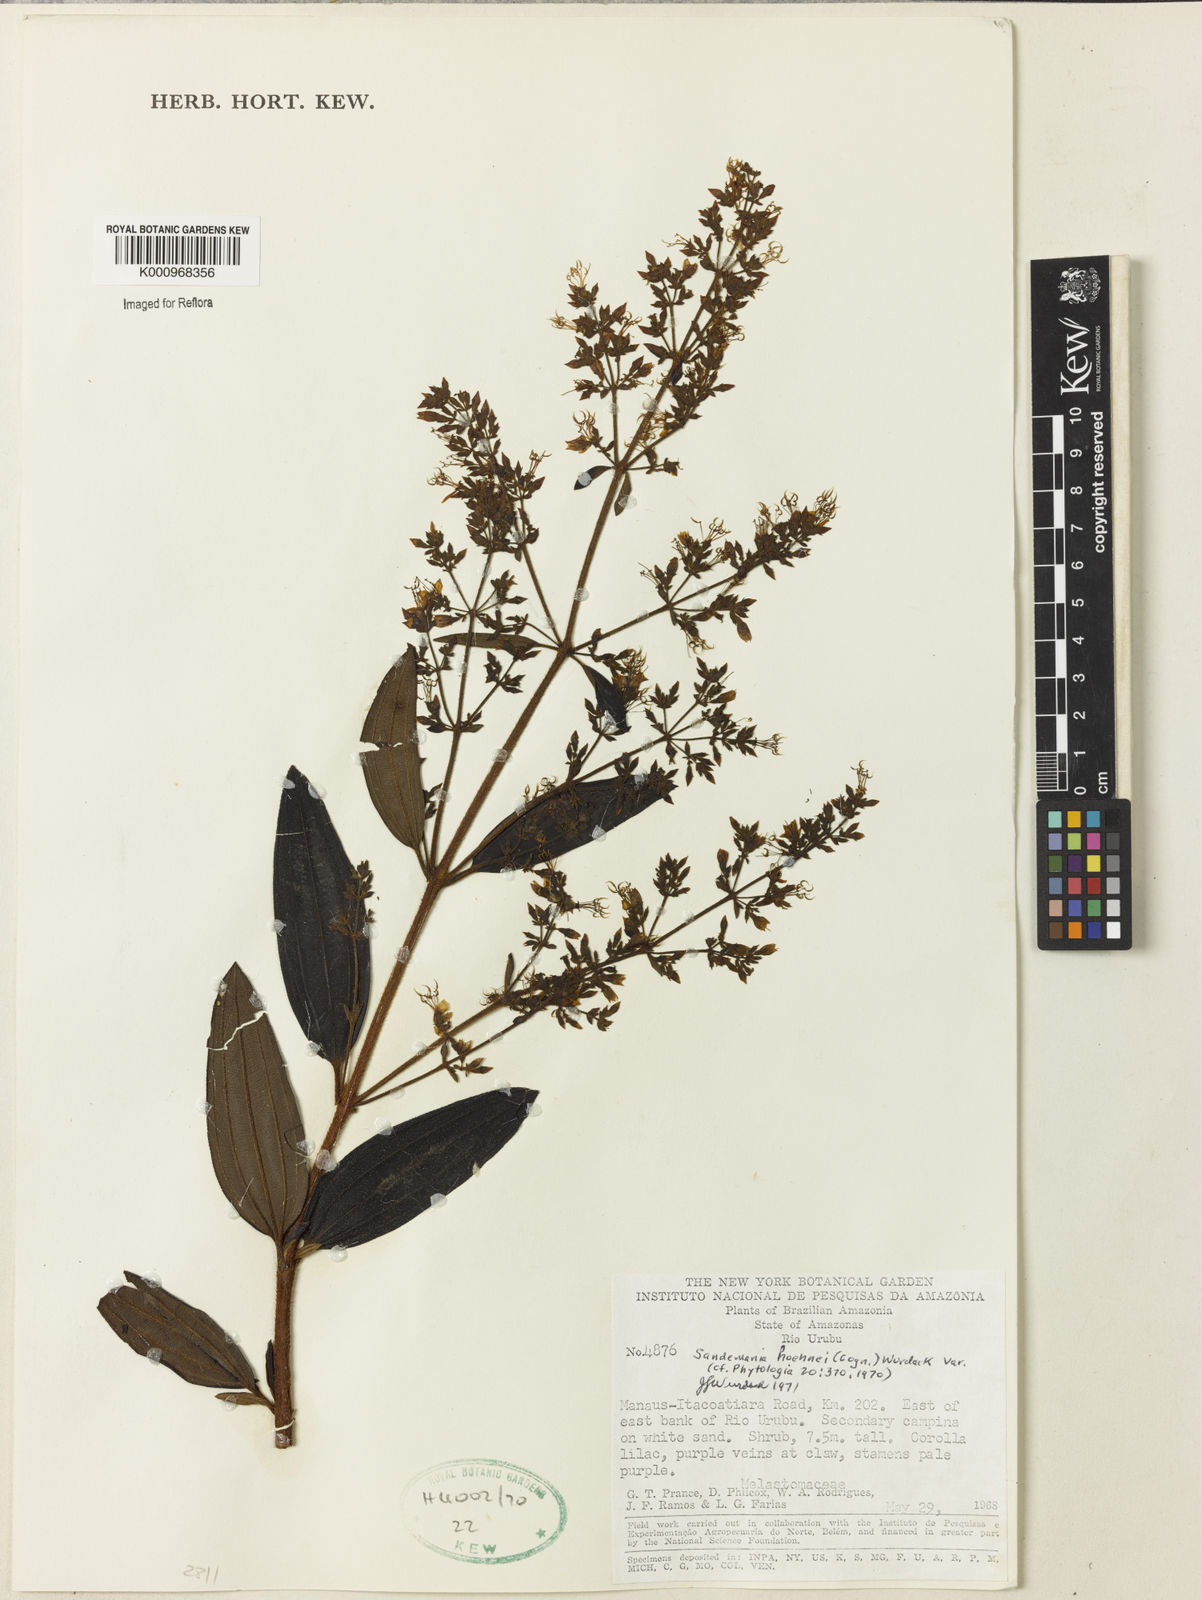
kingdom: Plantae
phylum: Tracheophyta
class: Magnoliopsida
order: Myrtales
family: Melastomataceae
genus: Sandemania
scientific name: Sandemania hoehnei
